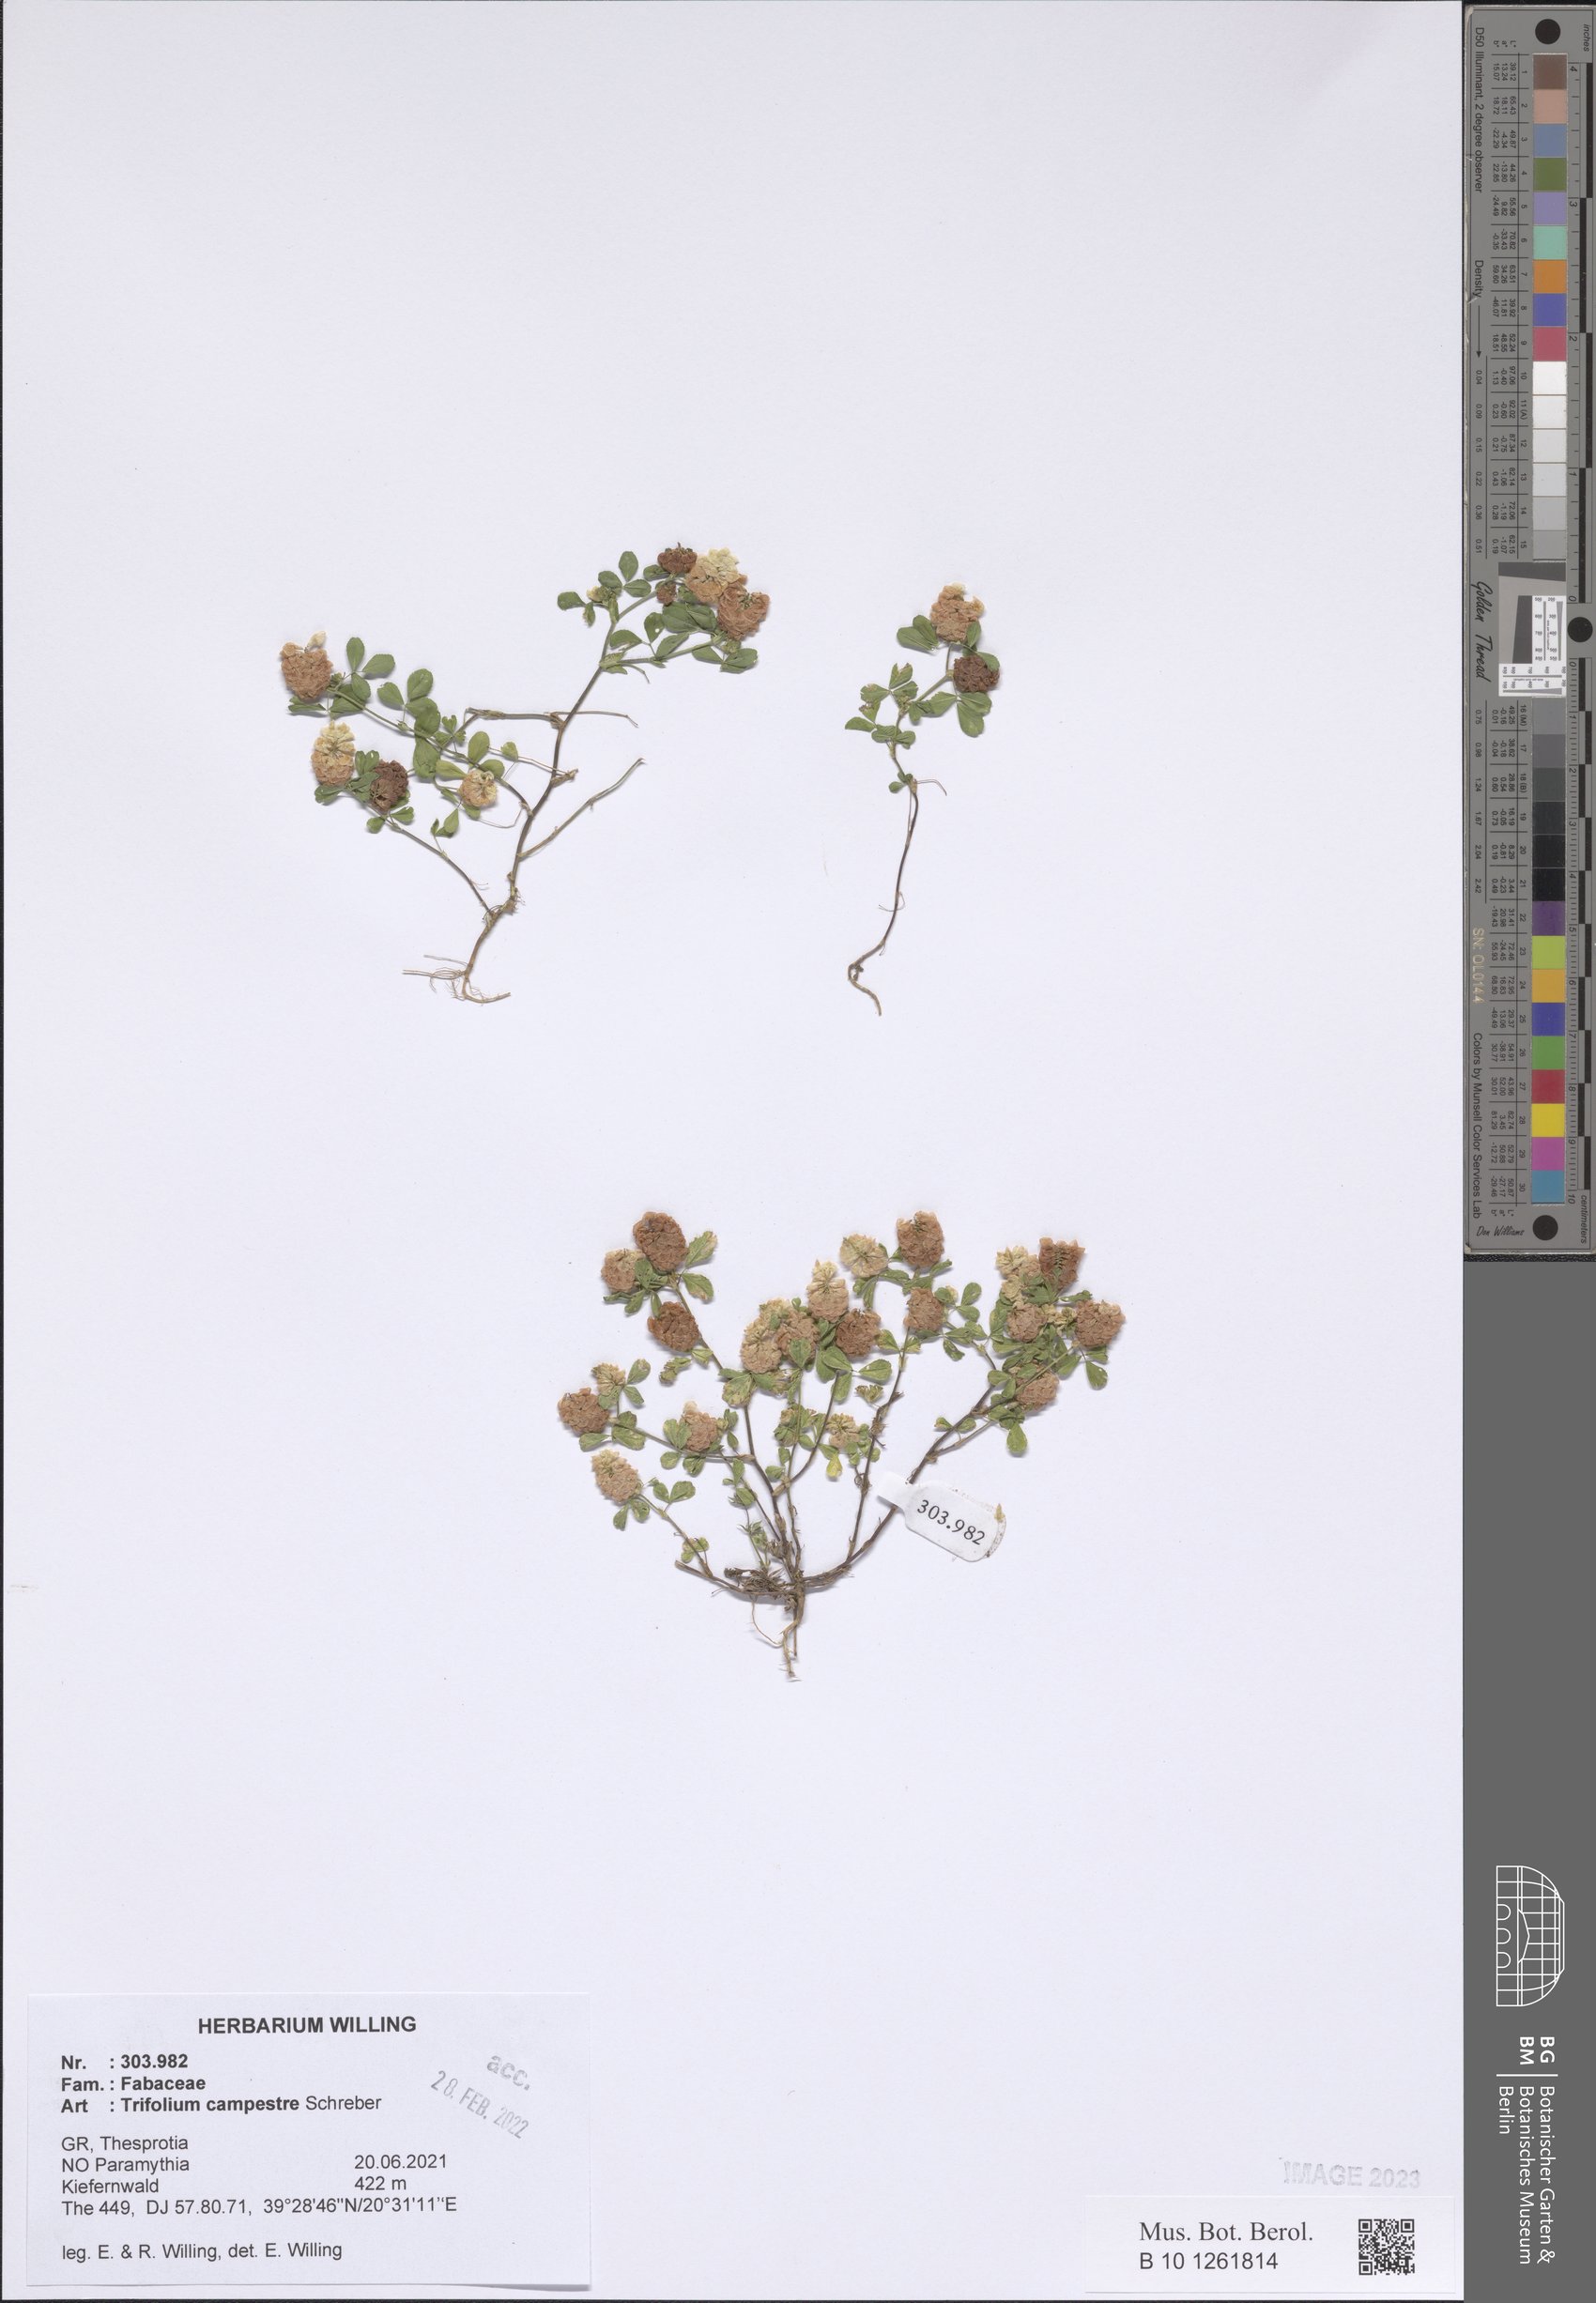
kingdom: Plantae
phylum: Tracheophyta
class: Magnoliopsida
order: Fabales
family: Fabaceae
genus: Trifolium
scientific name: Trifolium campestre
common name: Field clover
